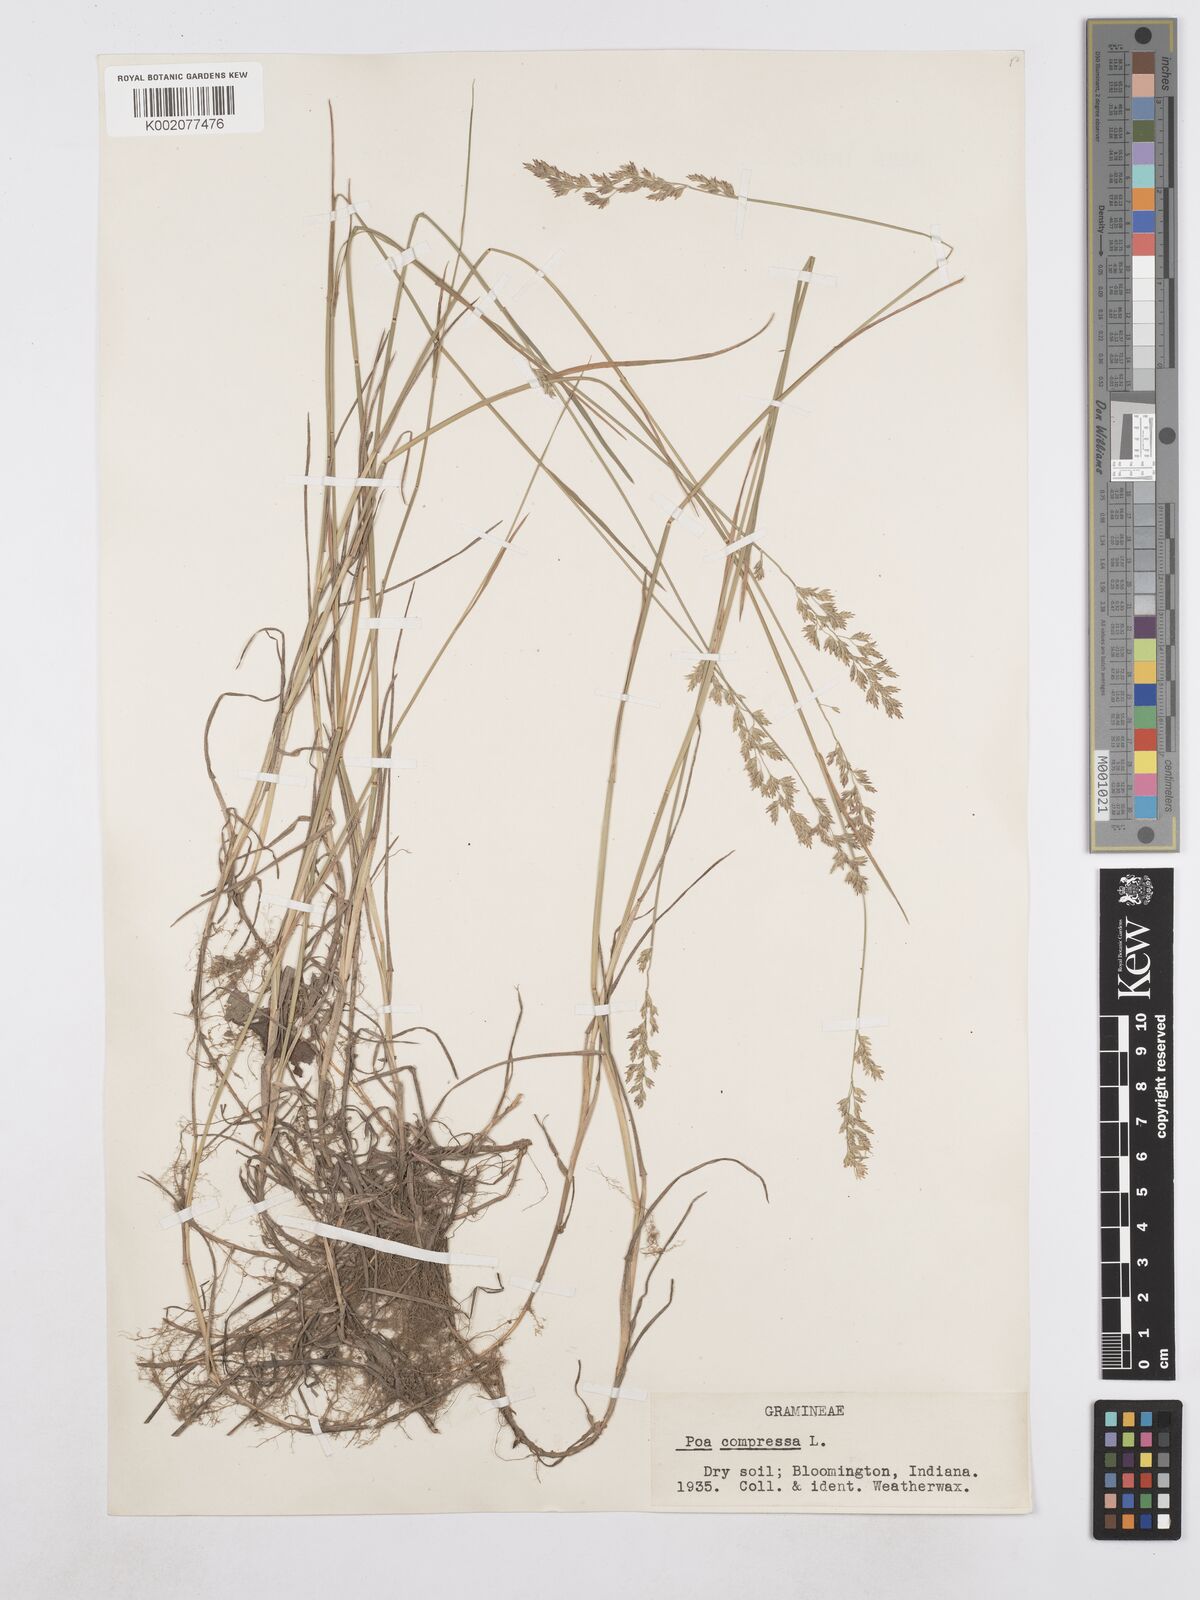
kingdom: Plantae
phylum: Tracheophyta
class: Liliopsida
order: Poales
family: Poaceae
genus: Poa
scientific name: Poa compressa
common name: Canada bluegrass
